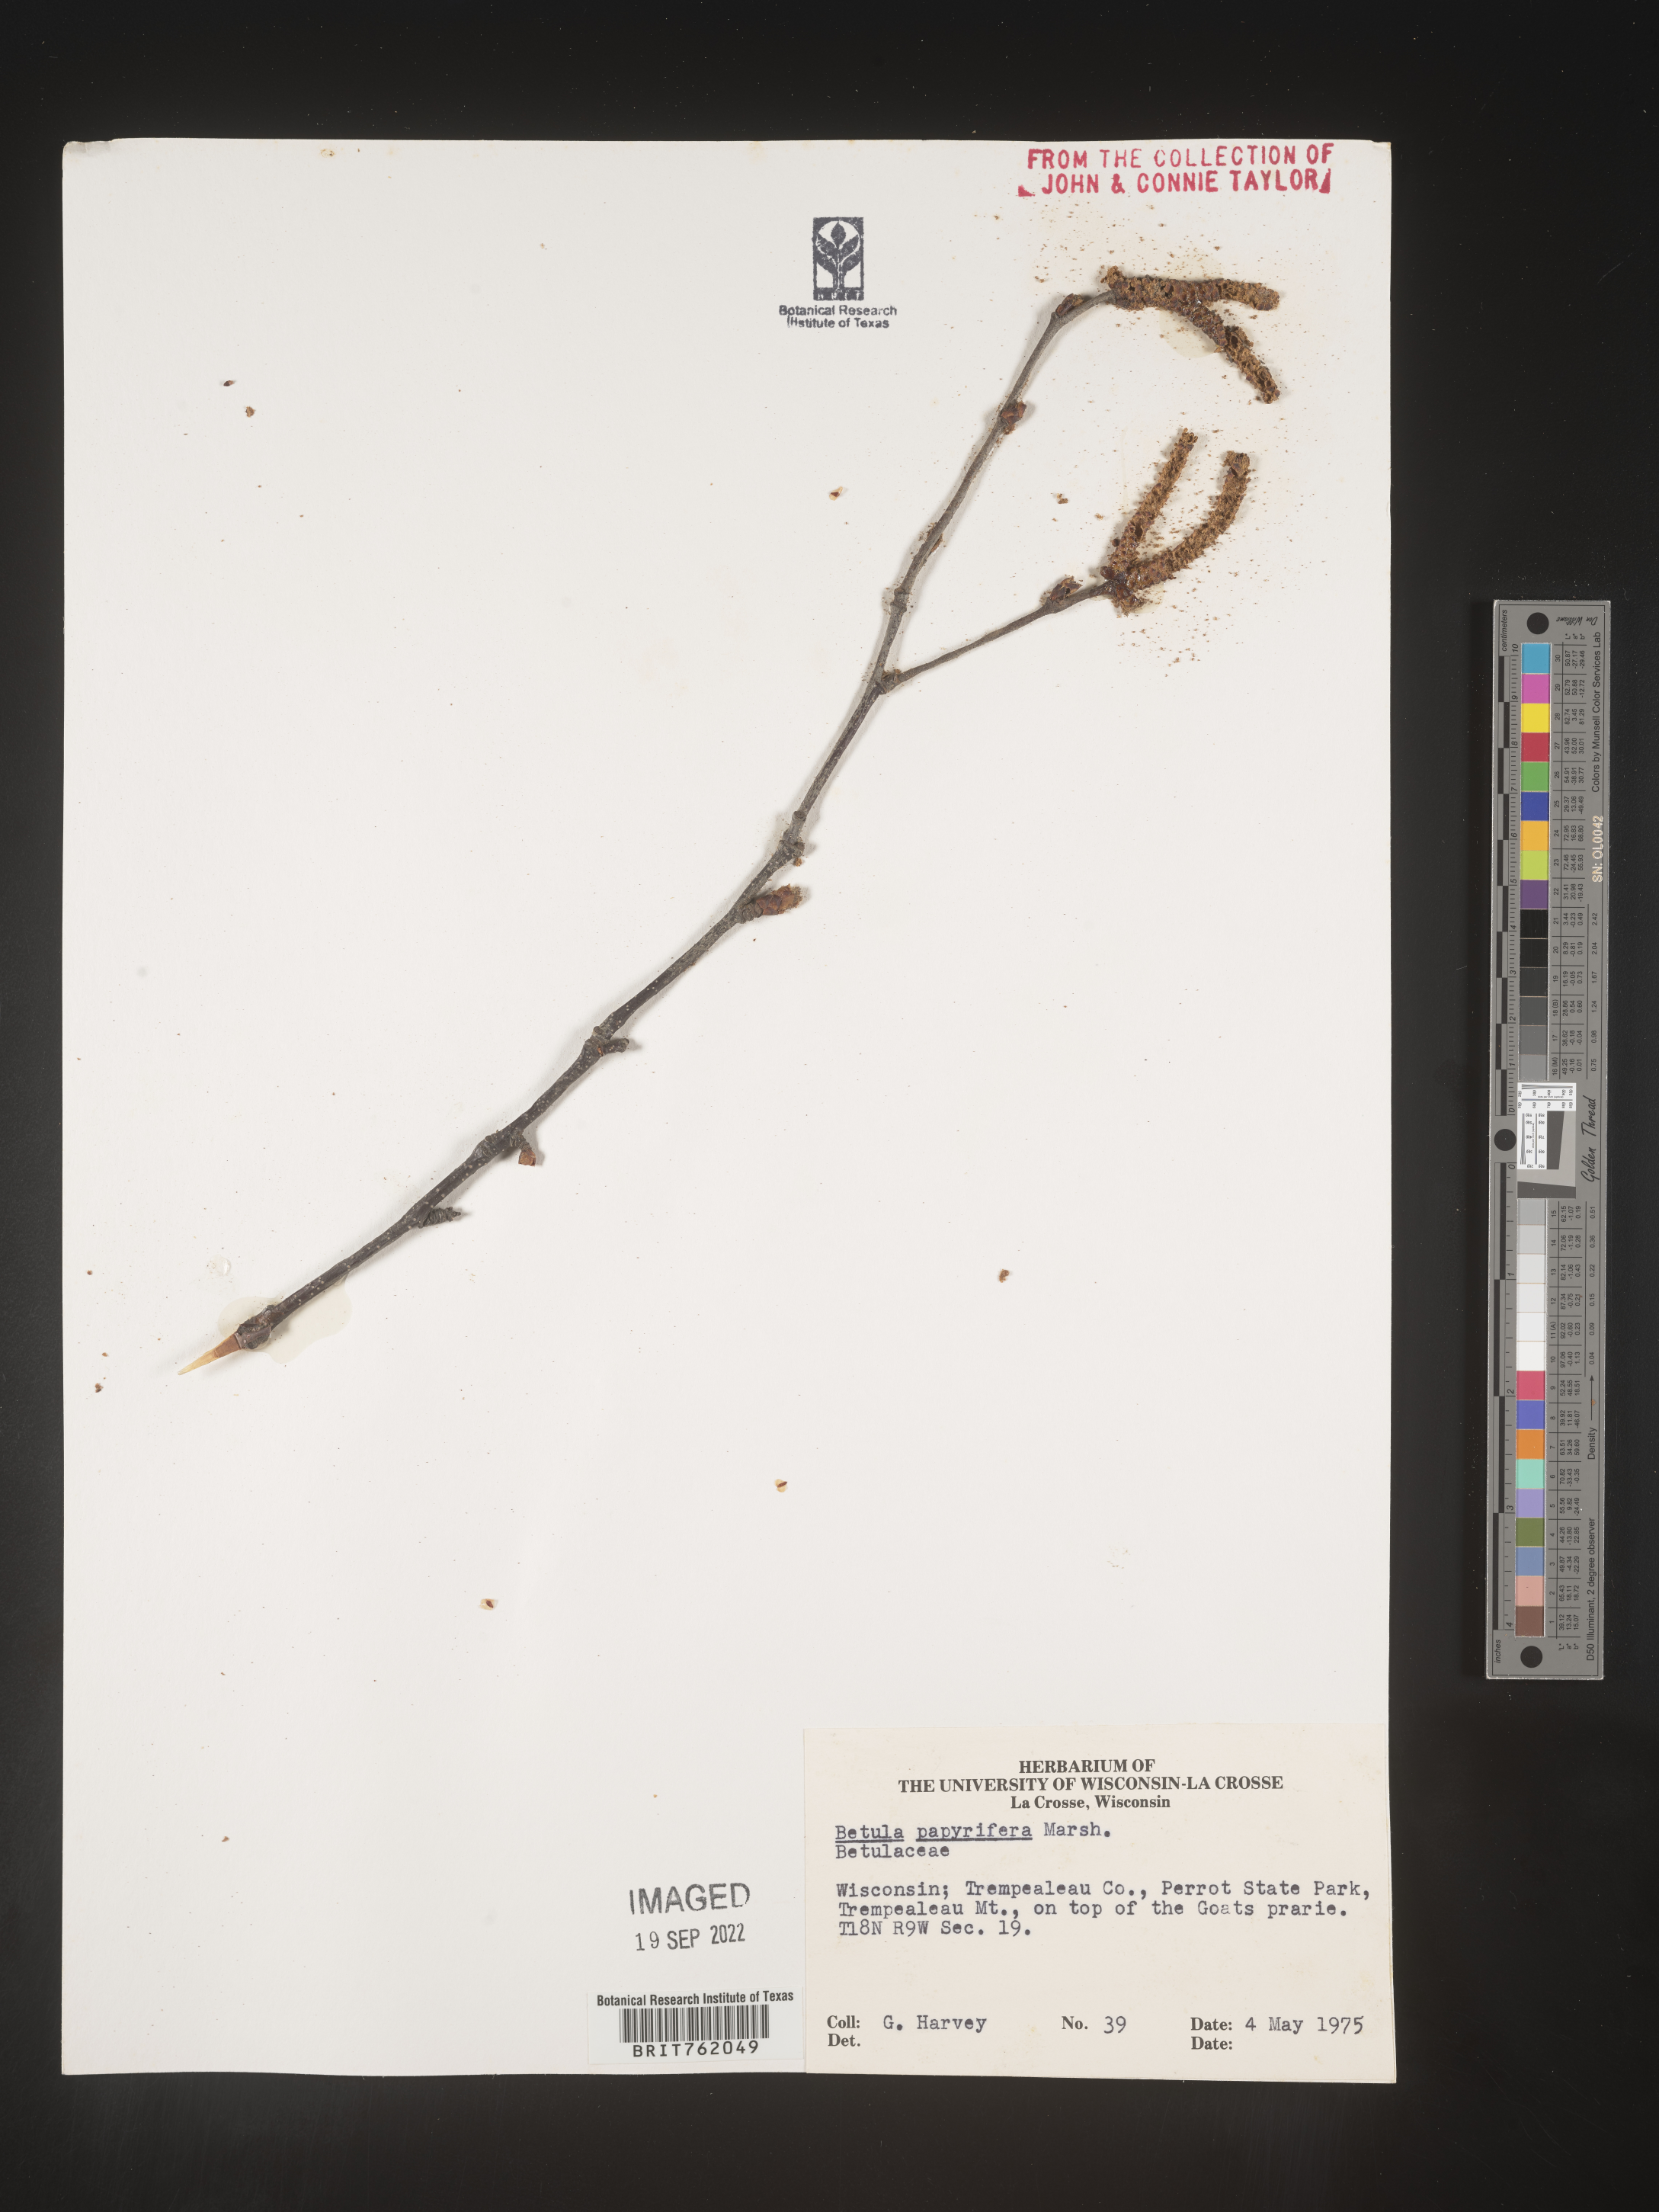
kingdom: Plantae
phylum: Tracheophyta
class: Magnoliopsida
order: Fagales
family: Betulaceae
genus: Betula
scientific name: Betula papyrifera
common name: Paper birch
